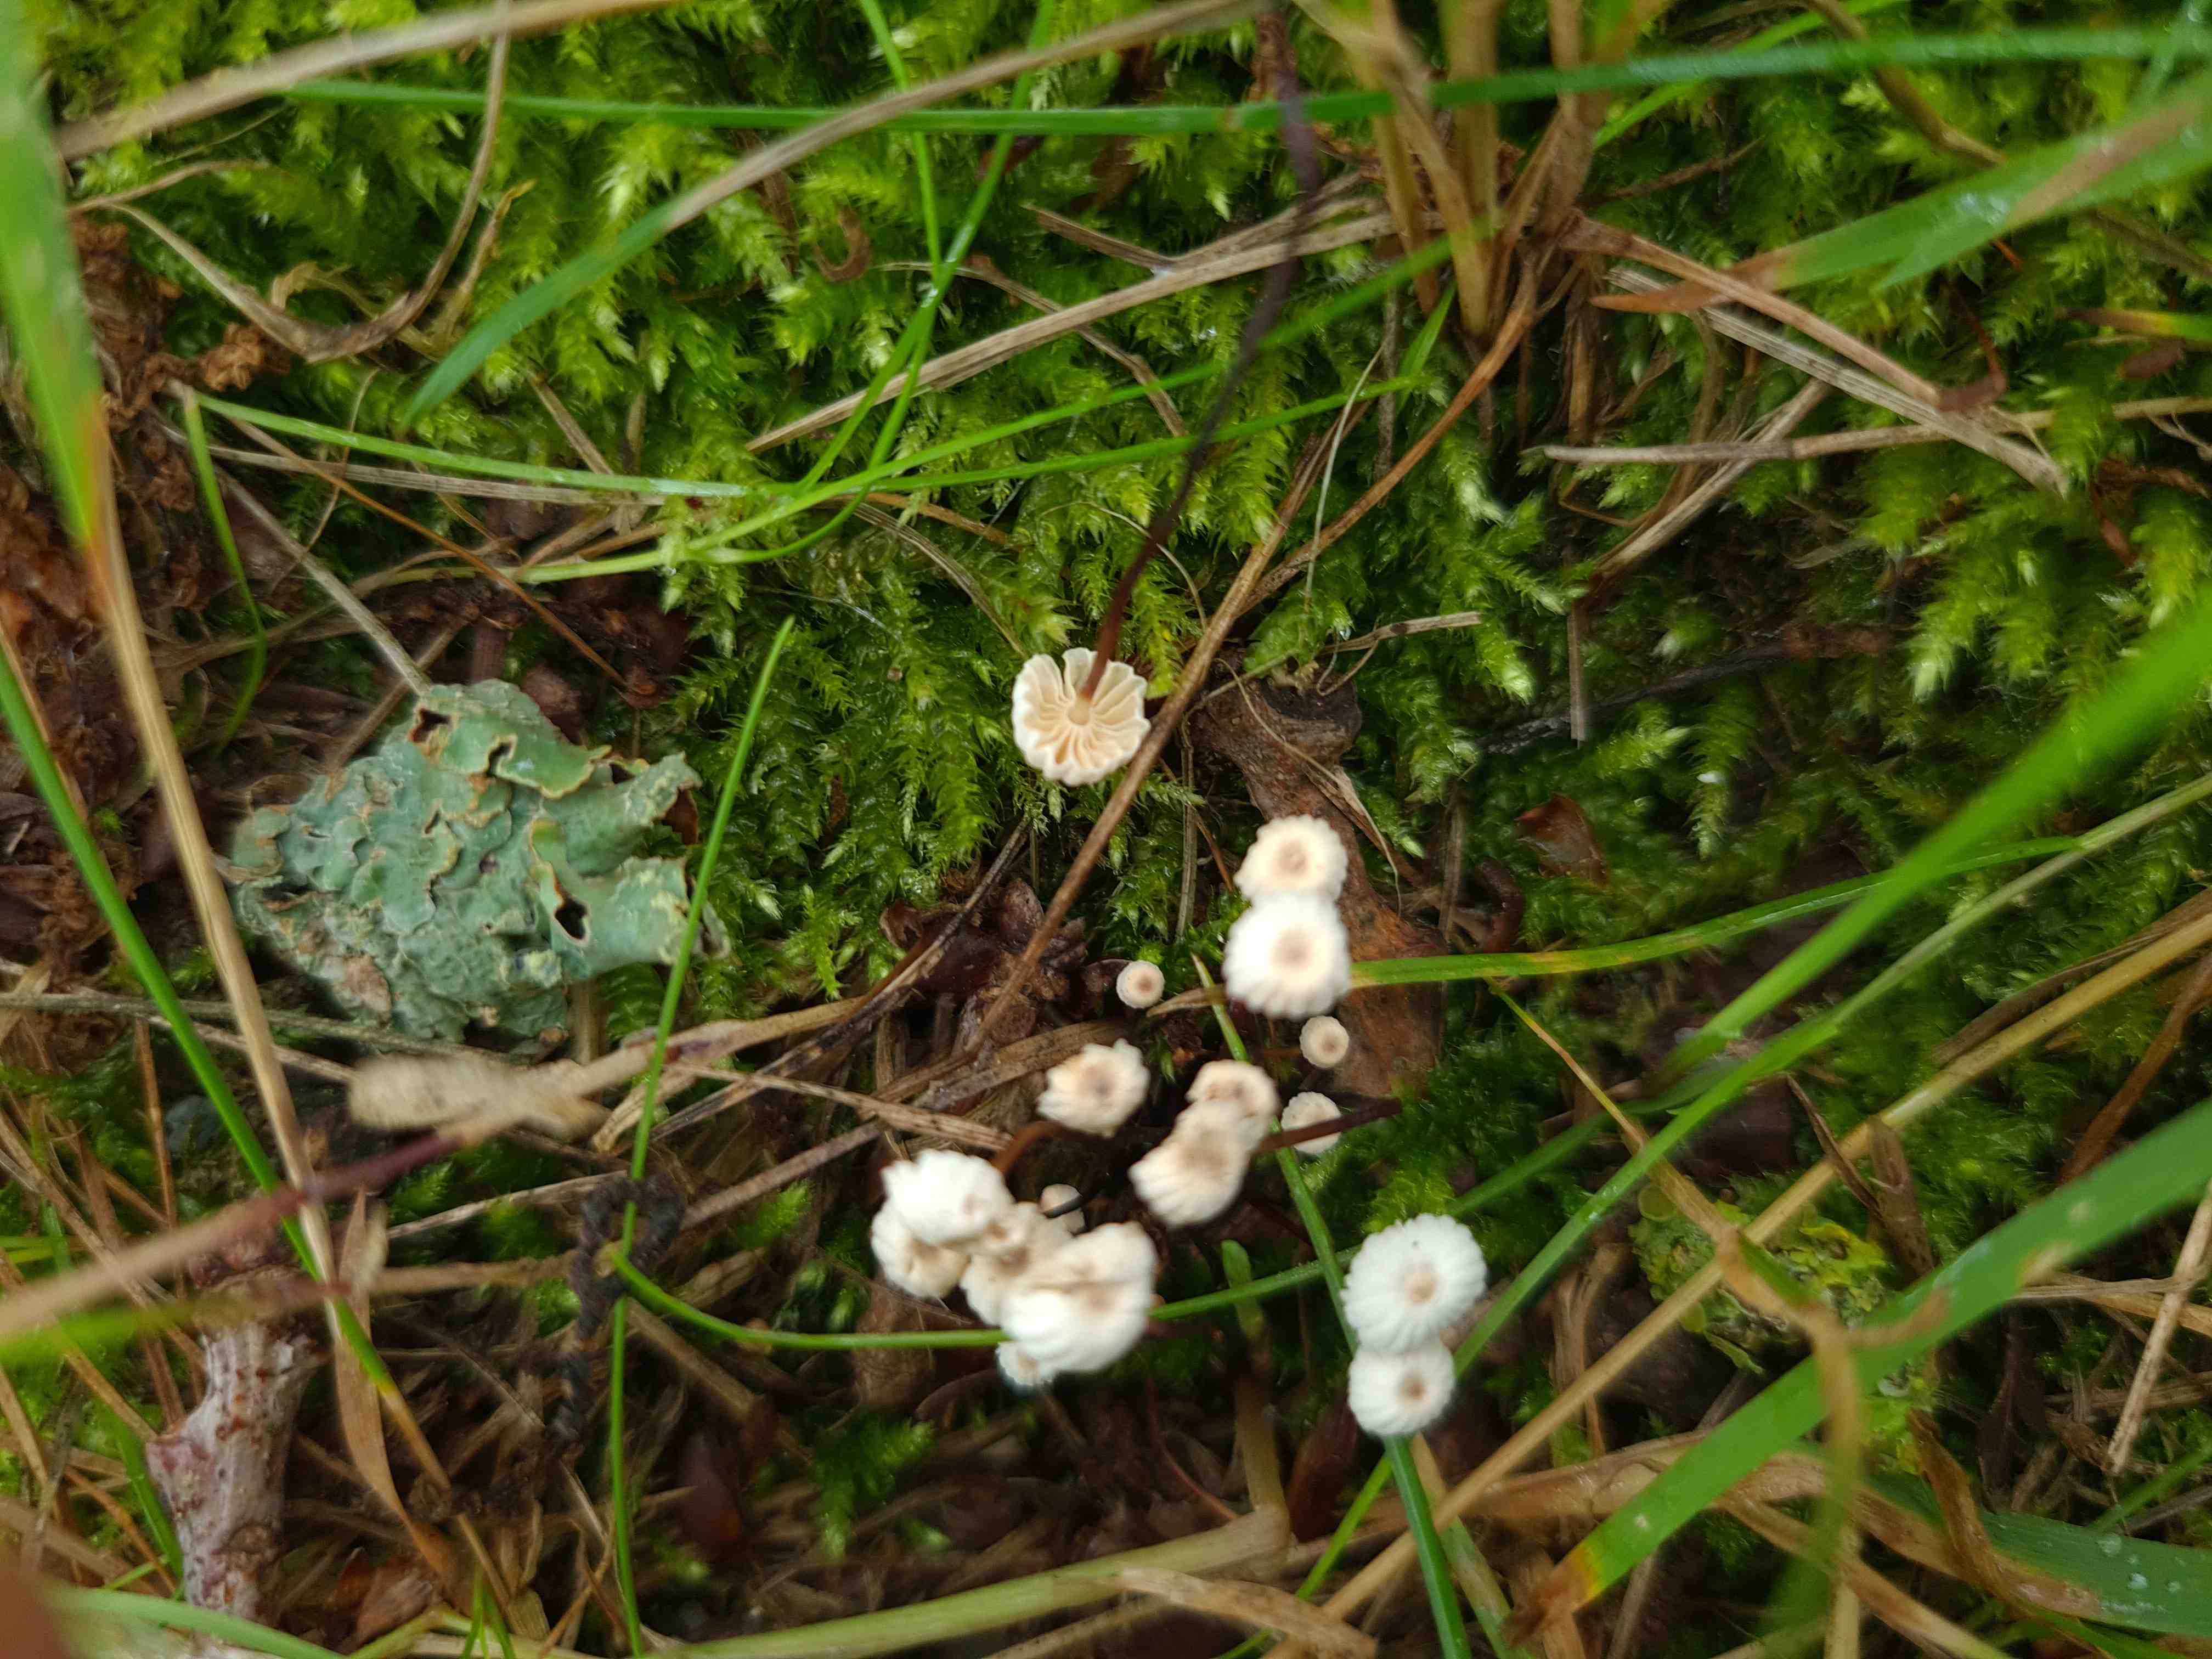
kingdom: Fungi
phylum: Basidiomycota
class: Agaricomycetes
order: Agaricales
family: Marasmiaceae
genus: Marasmius
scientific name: Marasmius rotula
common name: hjul-bruskhat
